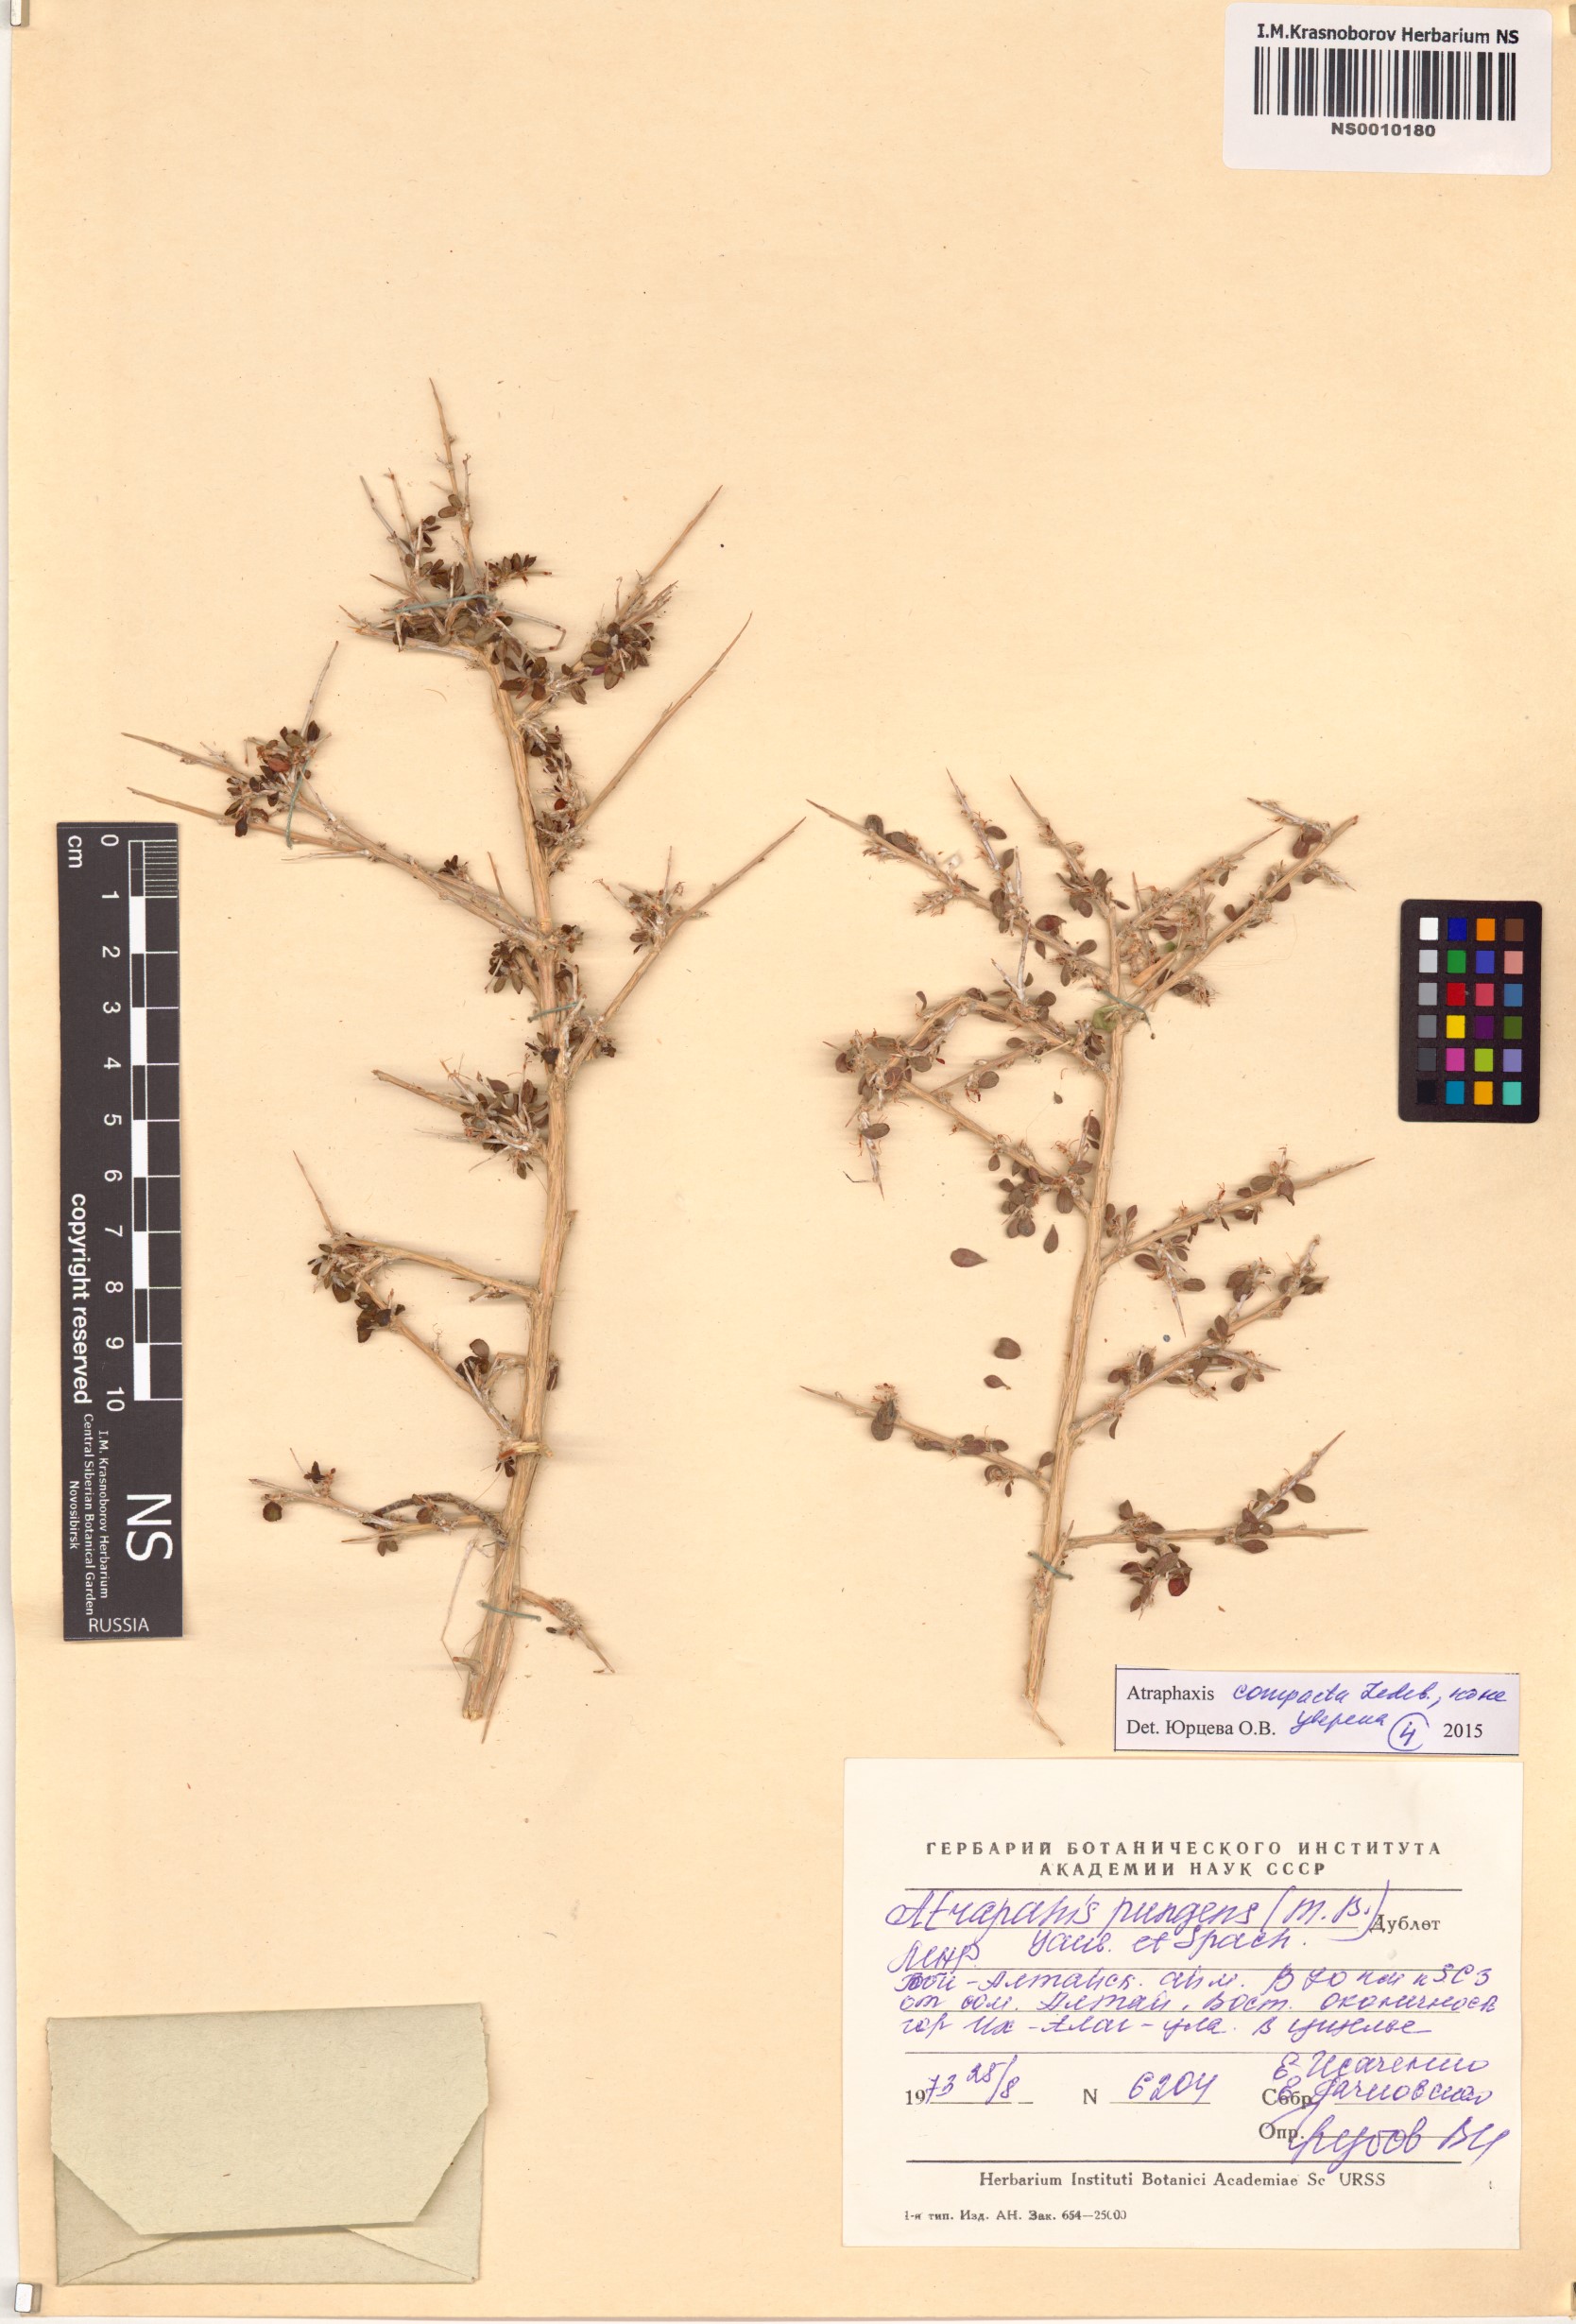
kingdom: Plantae
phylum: Tracheophyta
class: Magnoliopsida
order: Caryophyllales
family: Polygonaceae
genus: Atraphaxis
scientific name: Atraphaxis pungens
